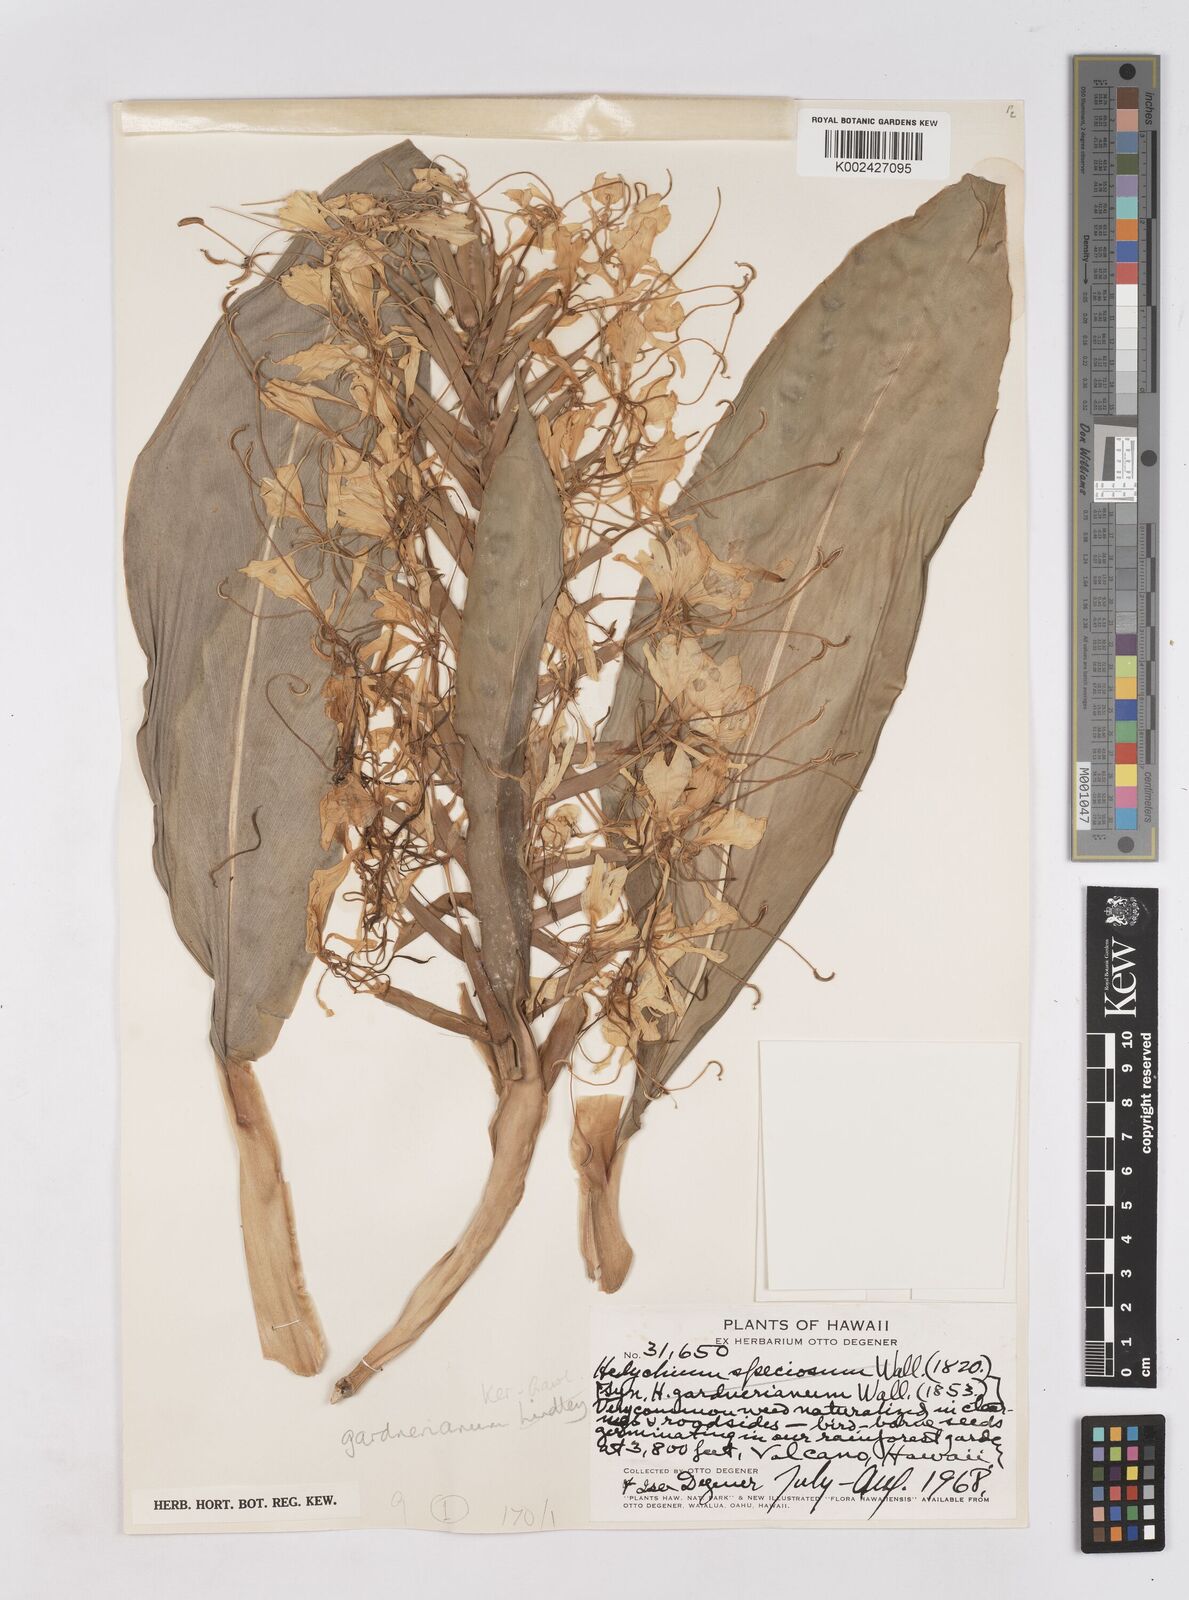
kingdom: Plantae
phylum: Tracheophyta
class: Liliopsida
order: Zingiberales
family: Zingiberaceae
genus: Hedychium
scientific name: Hedychium gardnerianum
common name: Himalayan ginger
